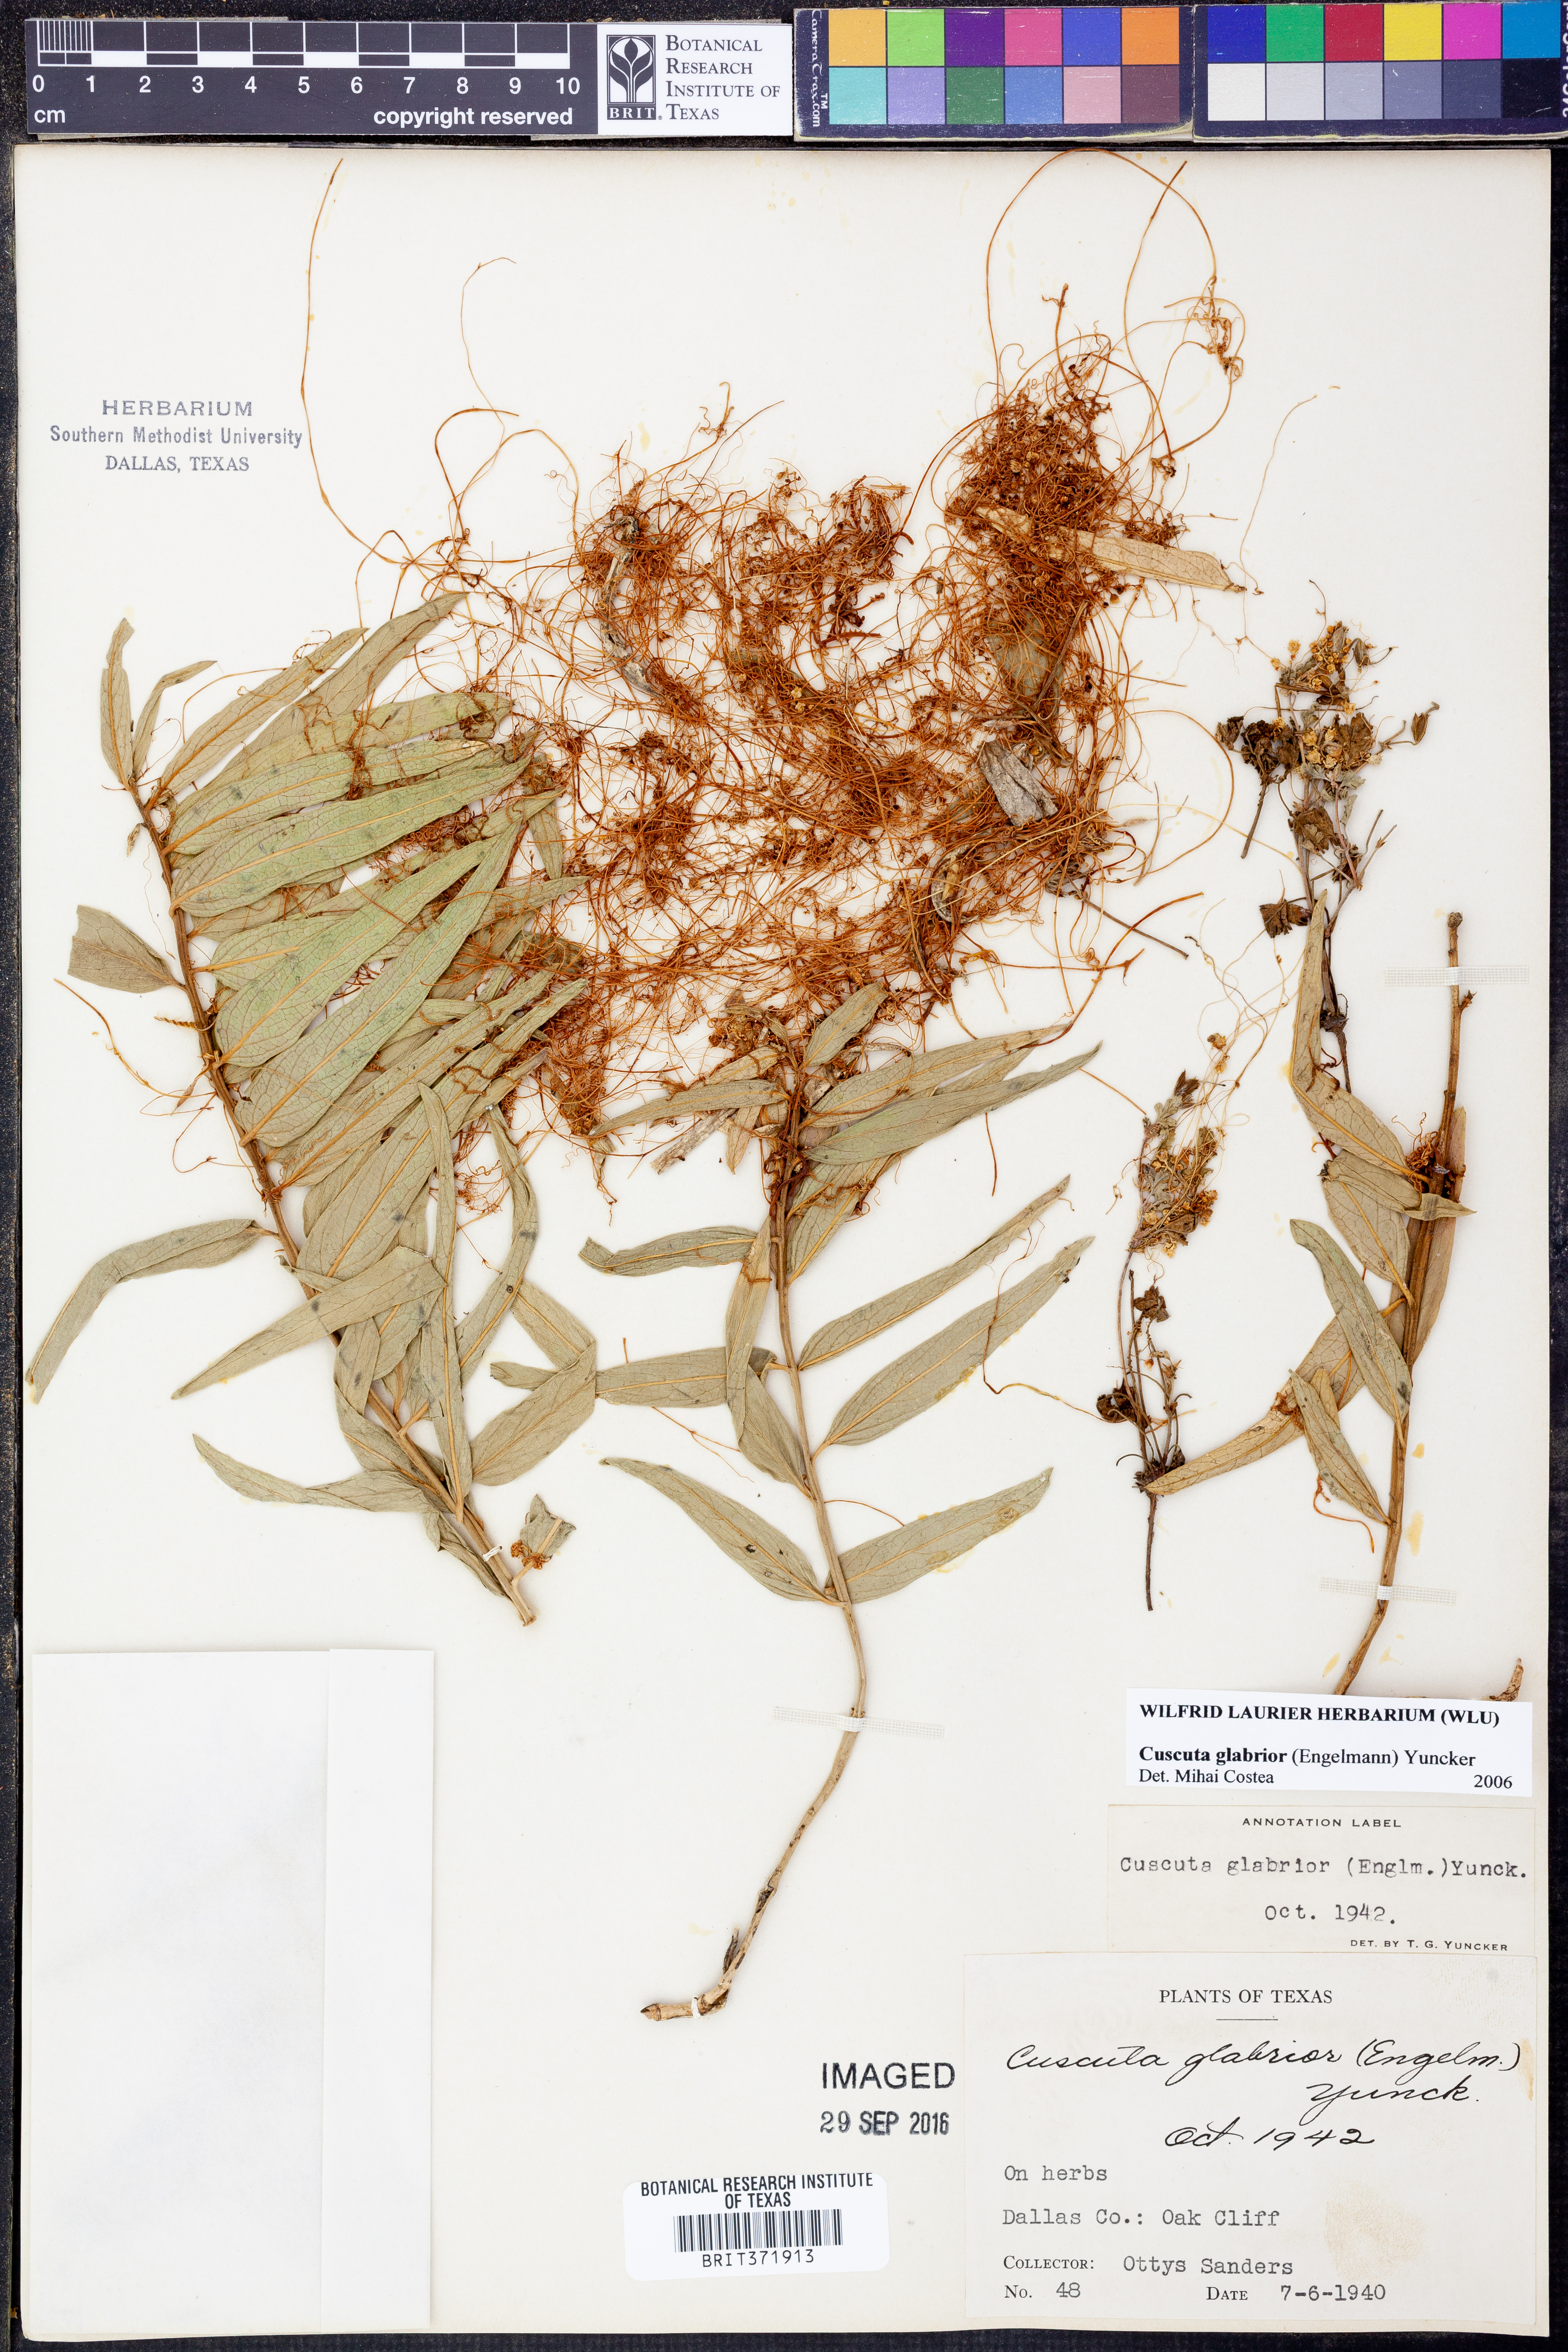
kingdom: Plantae
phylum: Tracheophyta
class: Magnoliopsida
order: Solanales
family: Convolvulaceae
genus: Cuscuta
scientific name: Cuscuta glabrior
